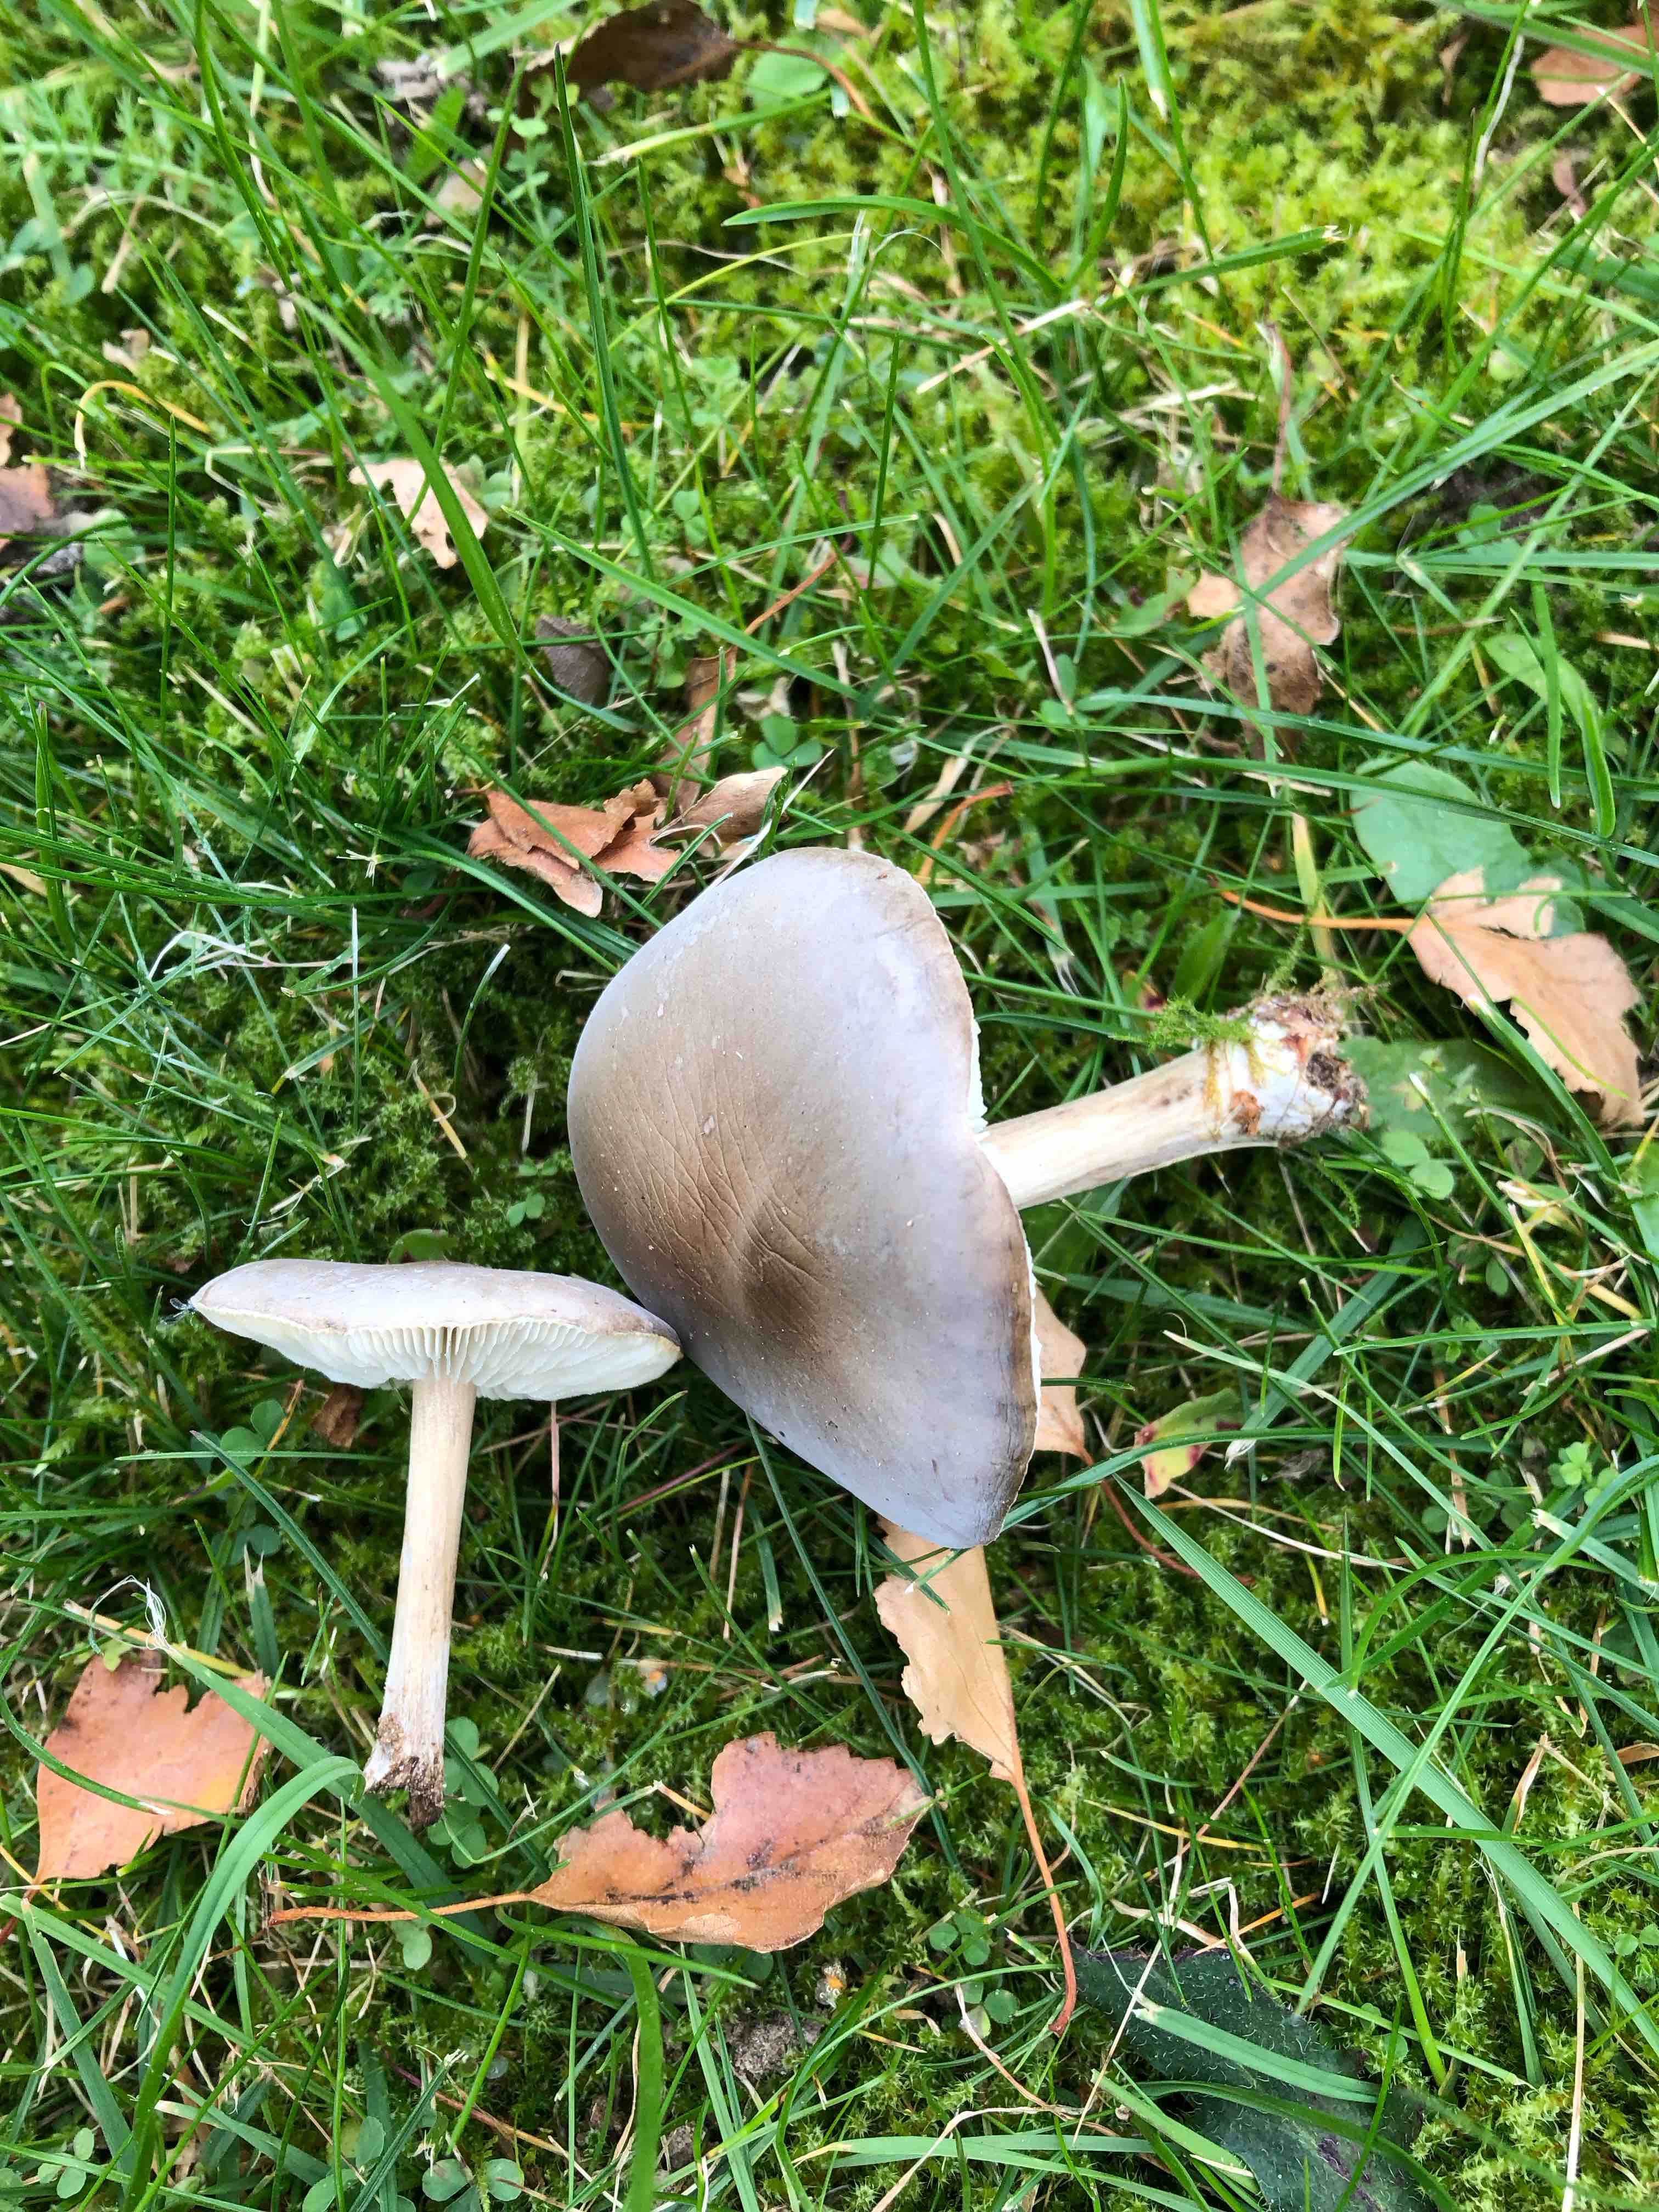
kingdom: Fungi
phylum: Basidiomycota
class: Agaricomycetes
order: Agaricales
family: Tricholomataceae
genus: Melanoleuca
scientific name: Melanoleuca
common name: munkehat
